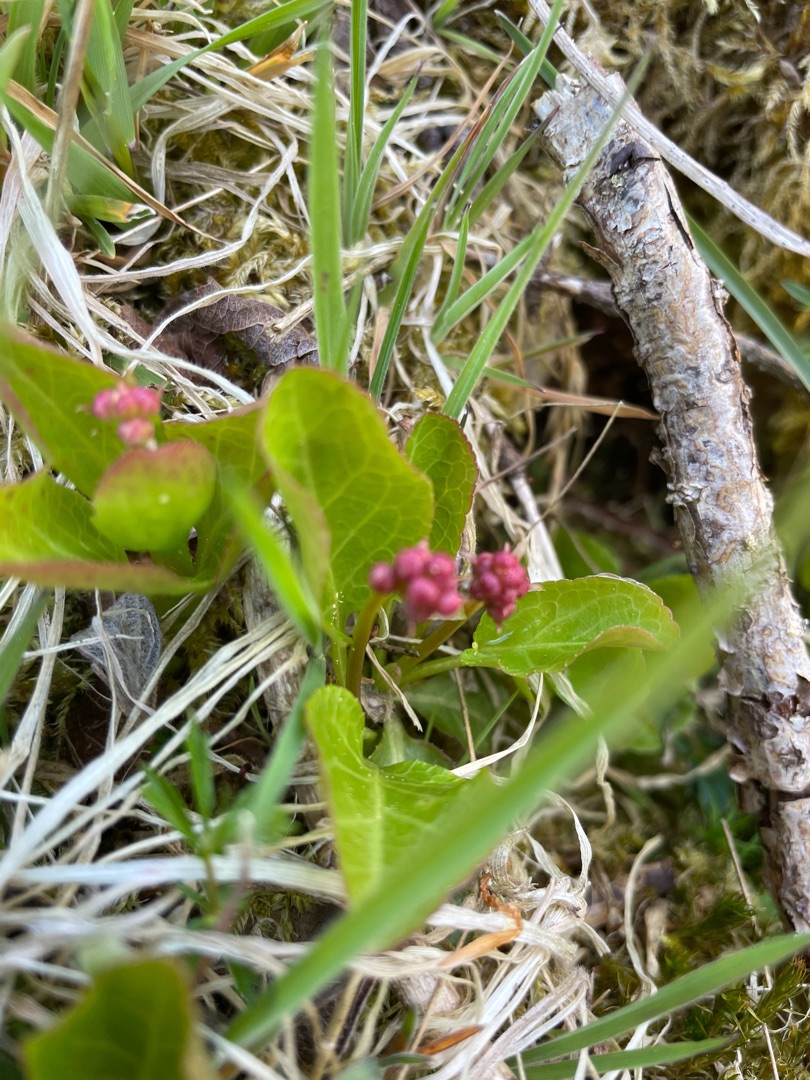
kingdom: Plantae
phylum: Tracheophyta
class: Magnoliopsida
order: Ericales
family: Ericaceae
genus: Pyrola
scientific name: Pyrola minor
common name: Liden vintergrøn
